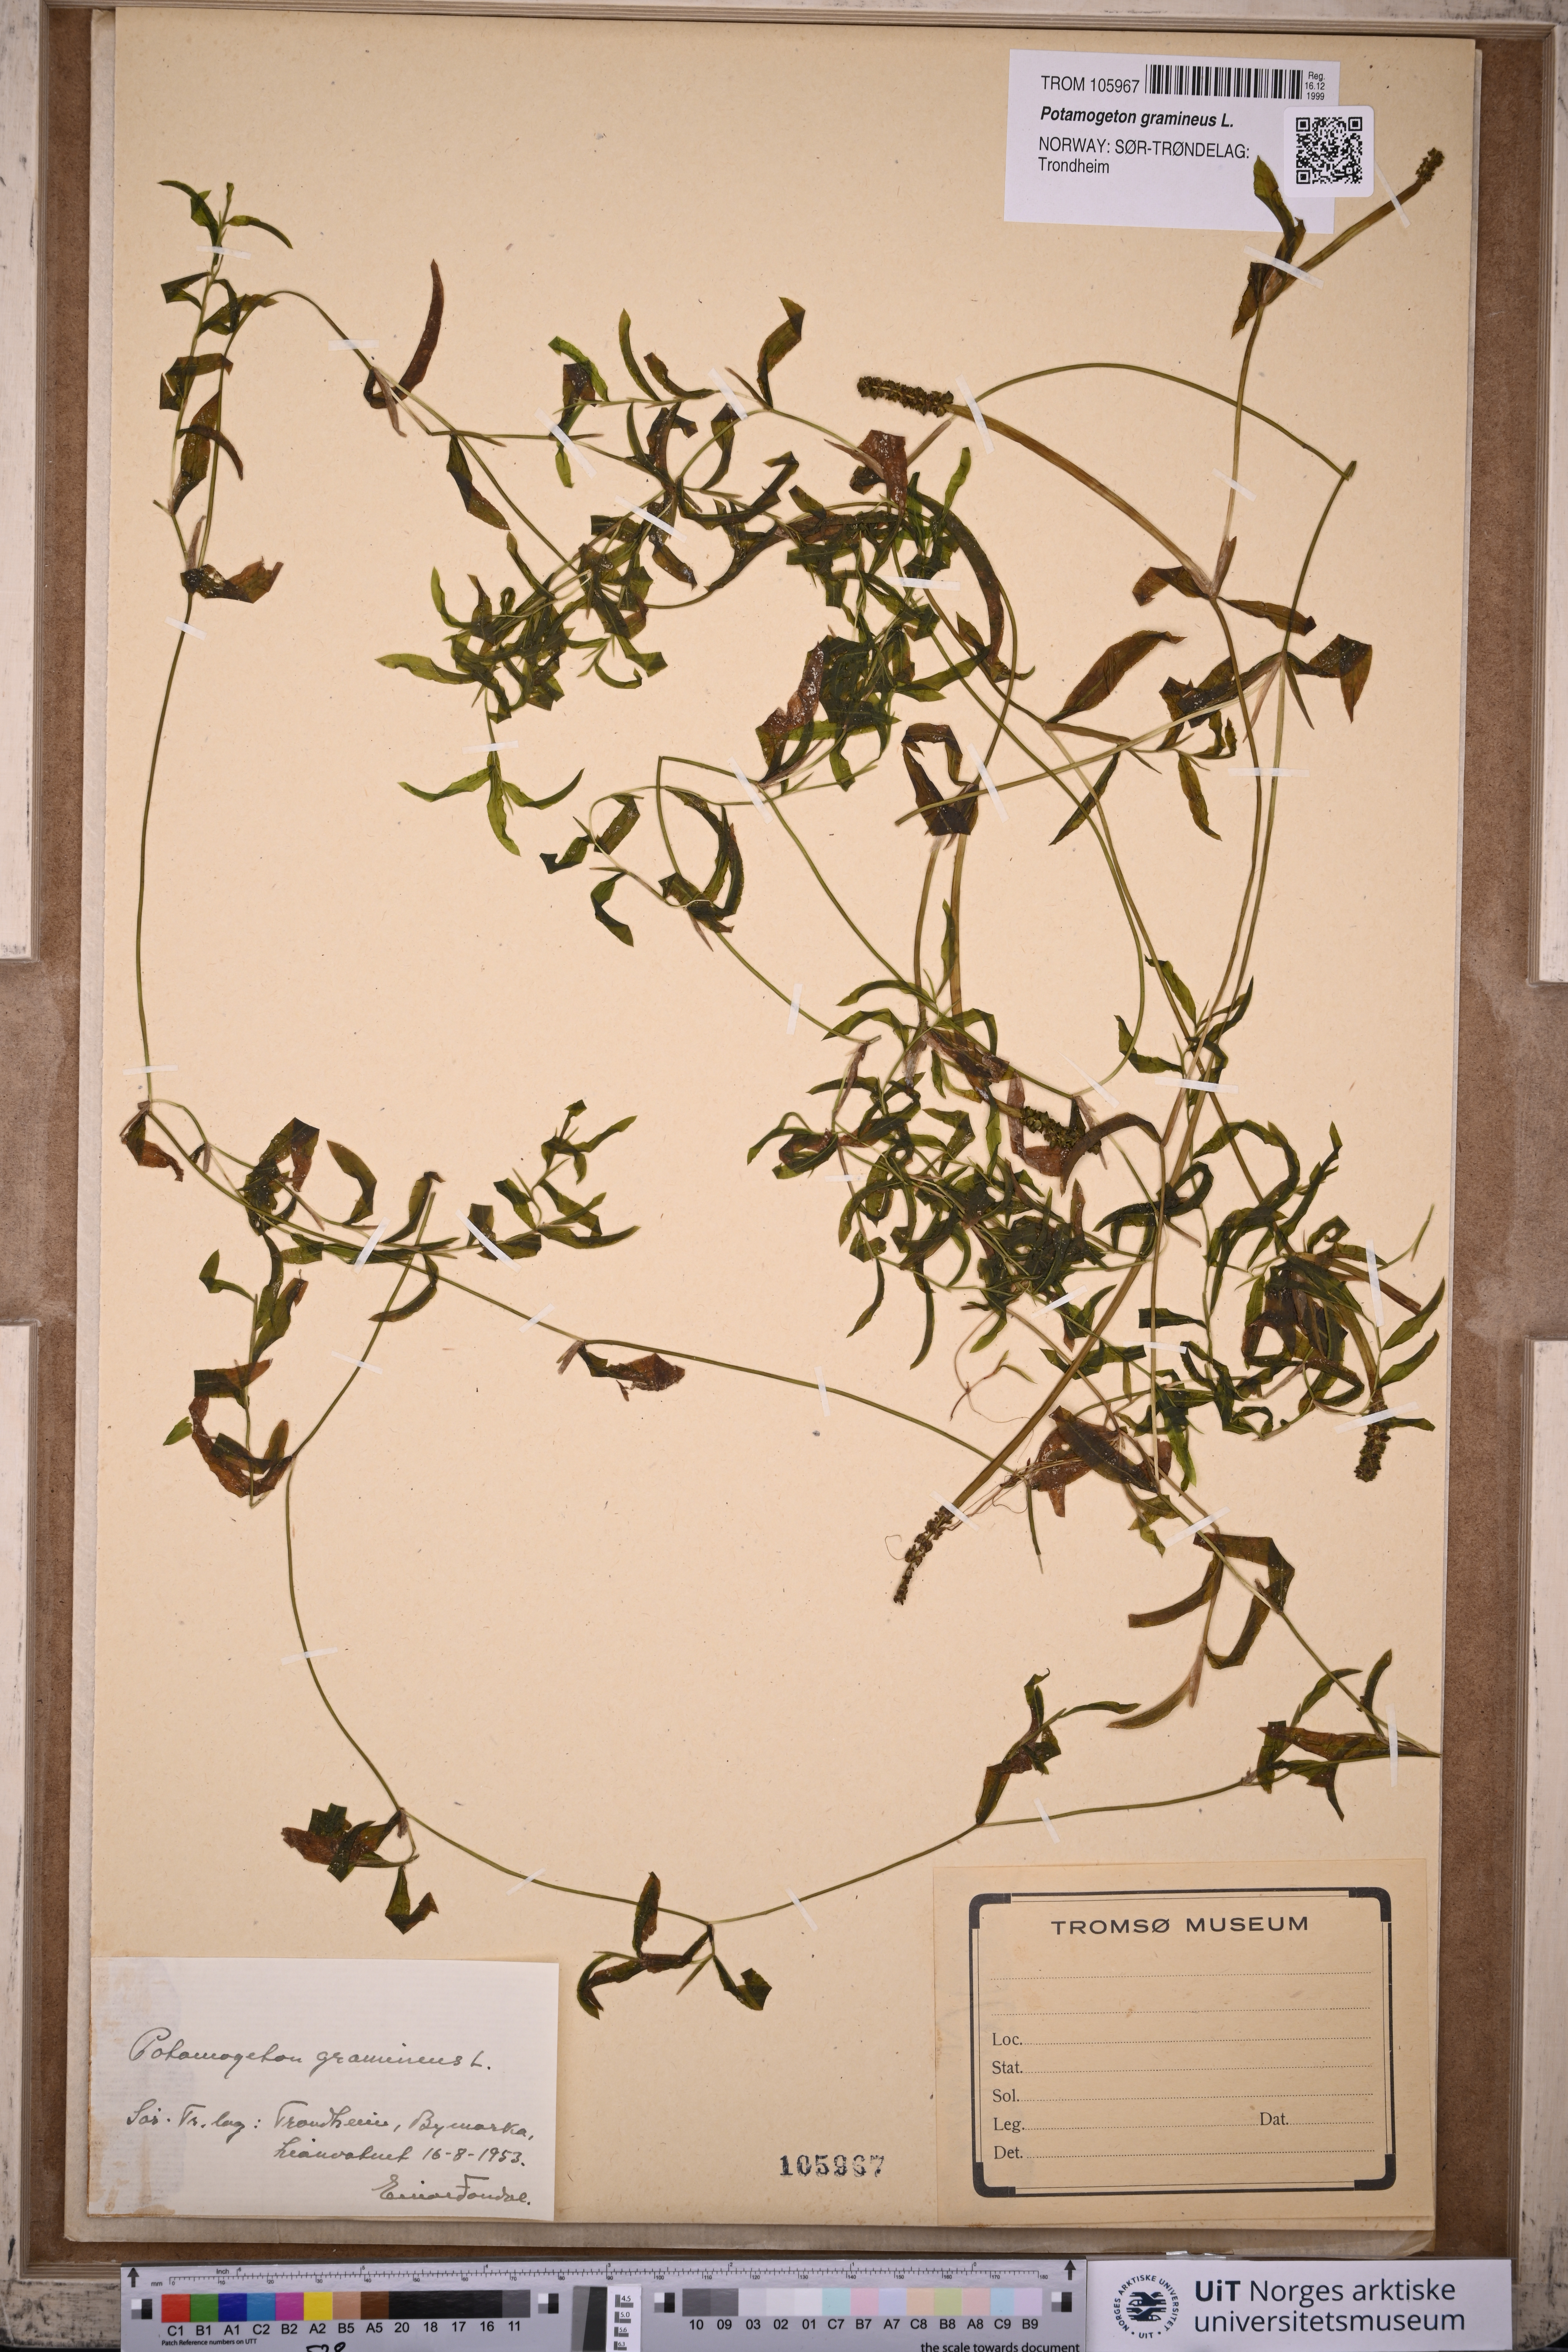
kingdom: Plantae
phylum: Tracheophyta
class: Liliopsida
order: Alismatales
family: Potamogetonaceae
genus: Potamogeton
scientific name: Potamogeton gramineus
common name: Various-leaved pondweed
